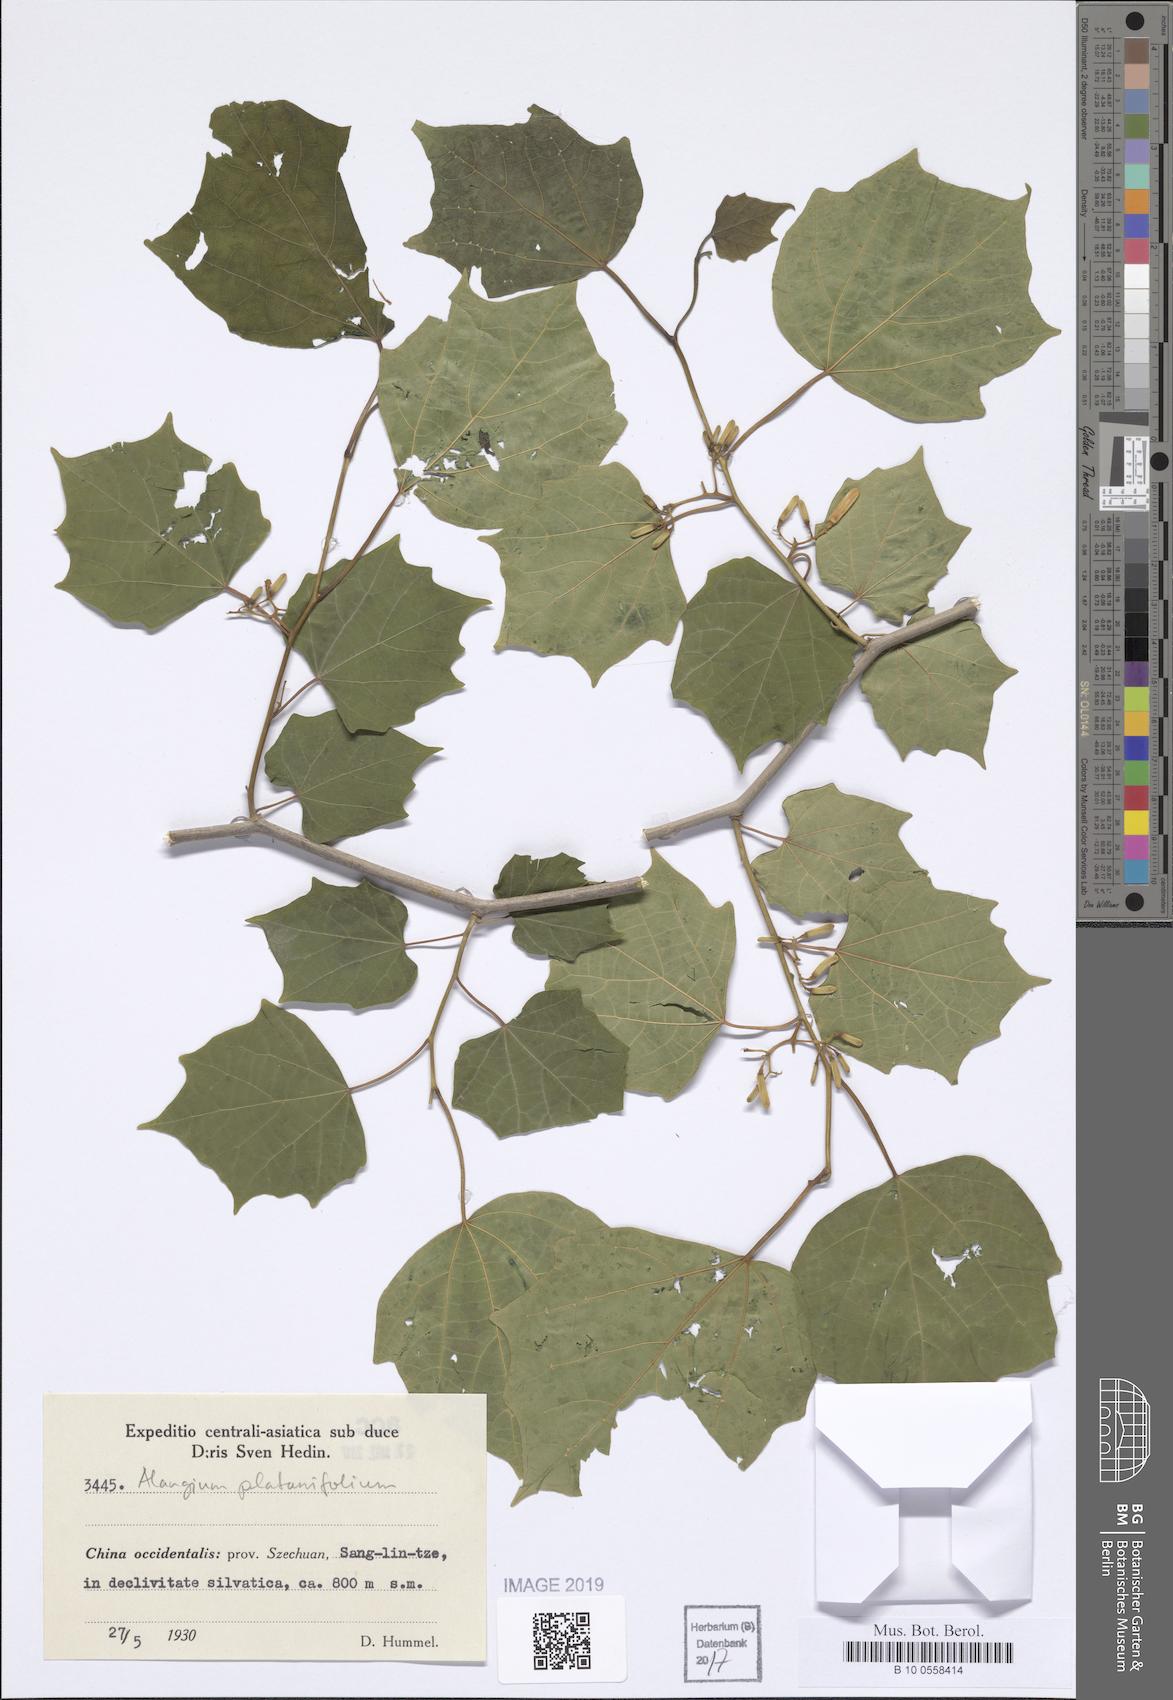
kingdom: Plantae
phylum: Tracheophyta
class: Magnoliopsida
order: Cornales
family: Cornaceae
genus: Alangium
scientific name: Alangium platanifolium
